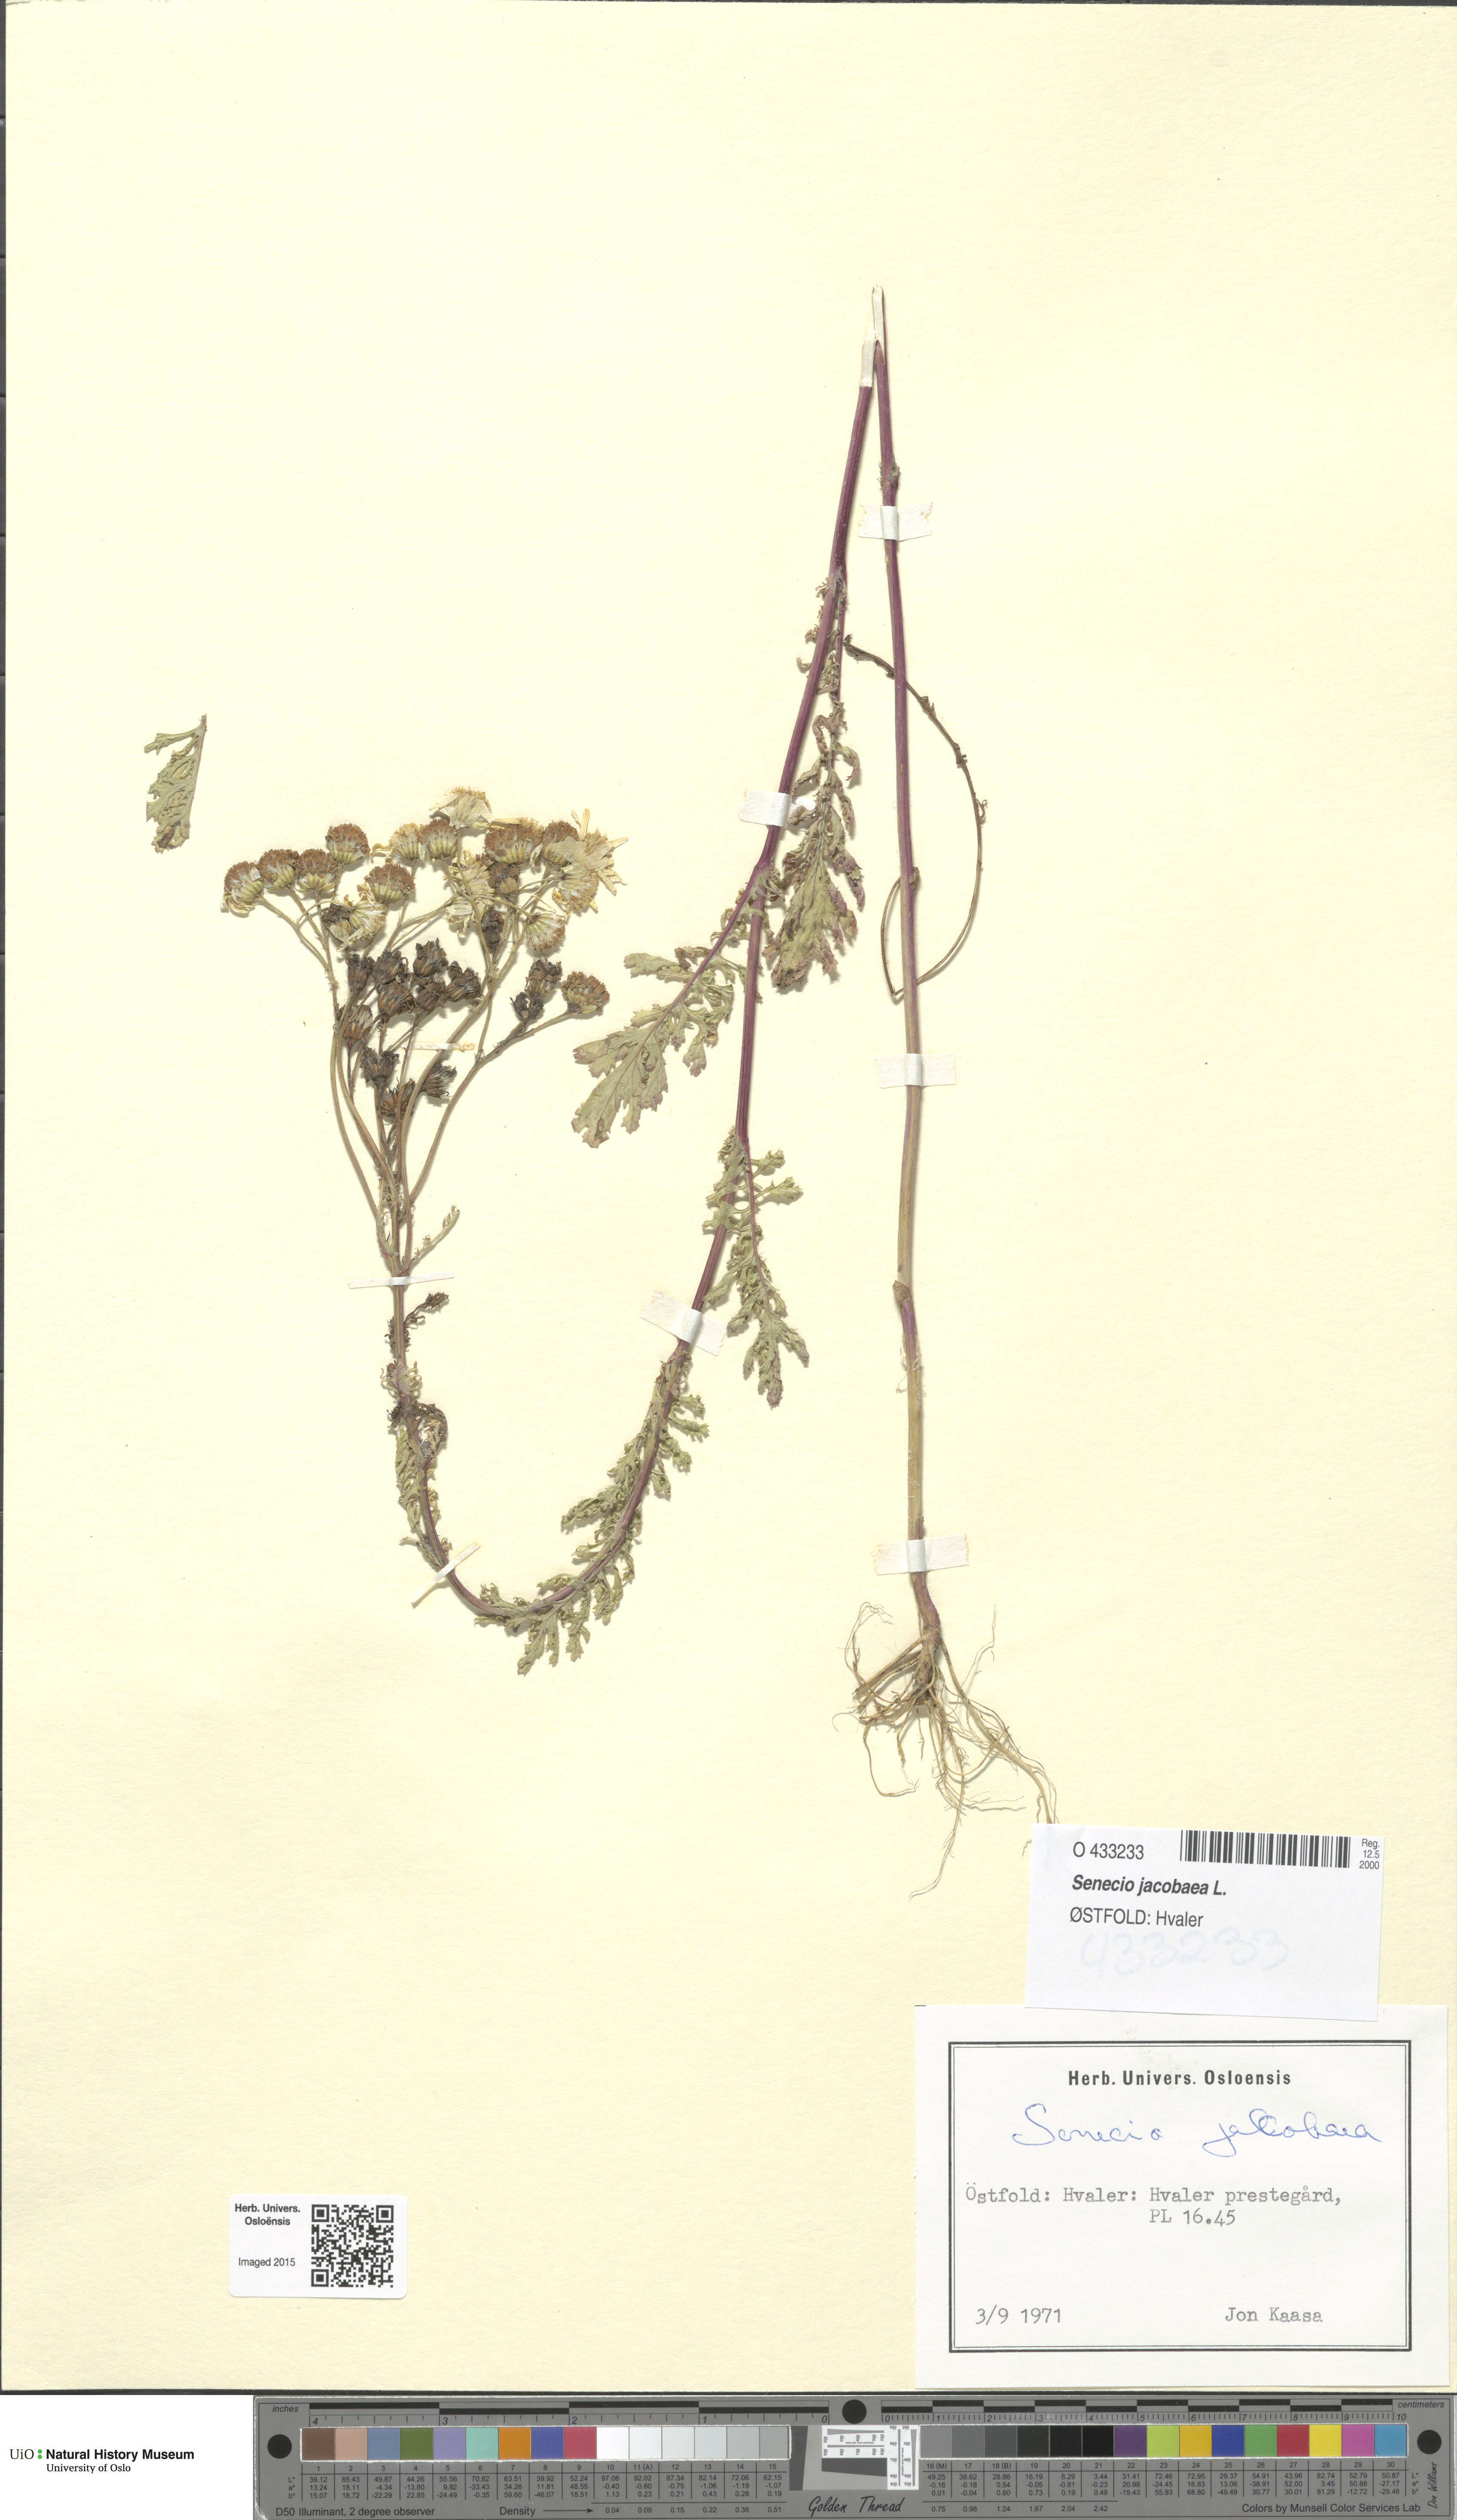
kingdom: Plantae
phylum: Tracheophyta
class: Magnoliopsida
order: Asterales
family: Asteraceae
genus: Jacobaea
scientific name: Jacobaea vulgaris
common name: Stinking willie
